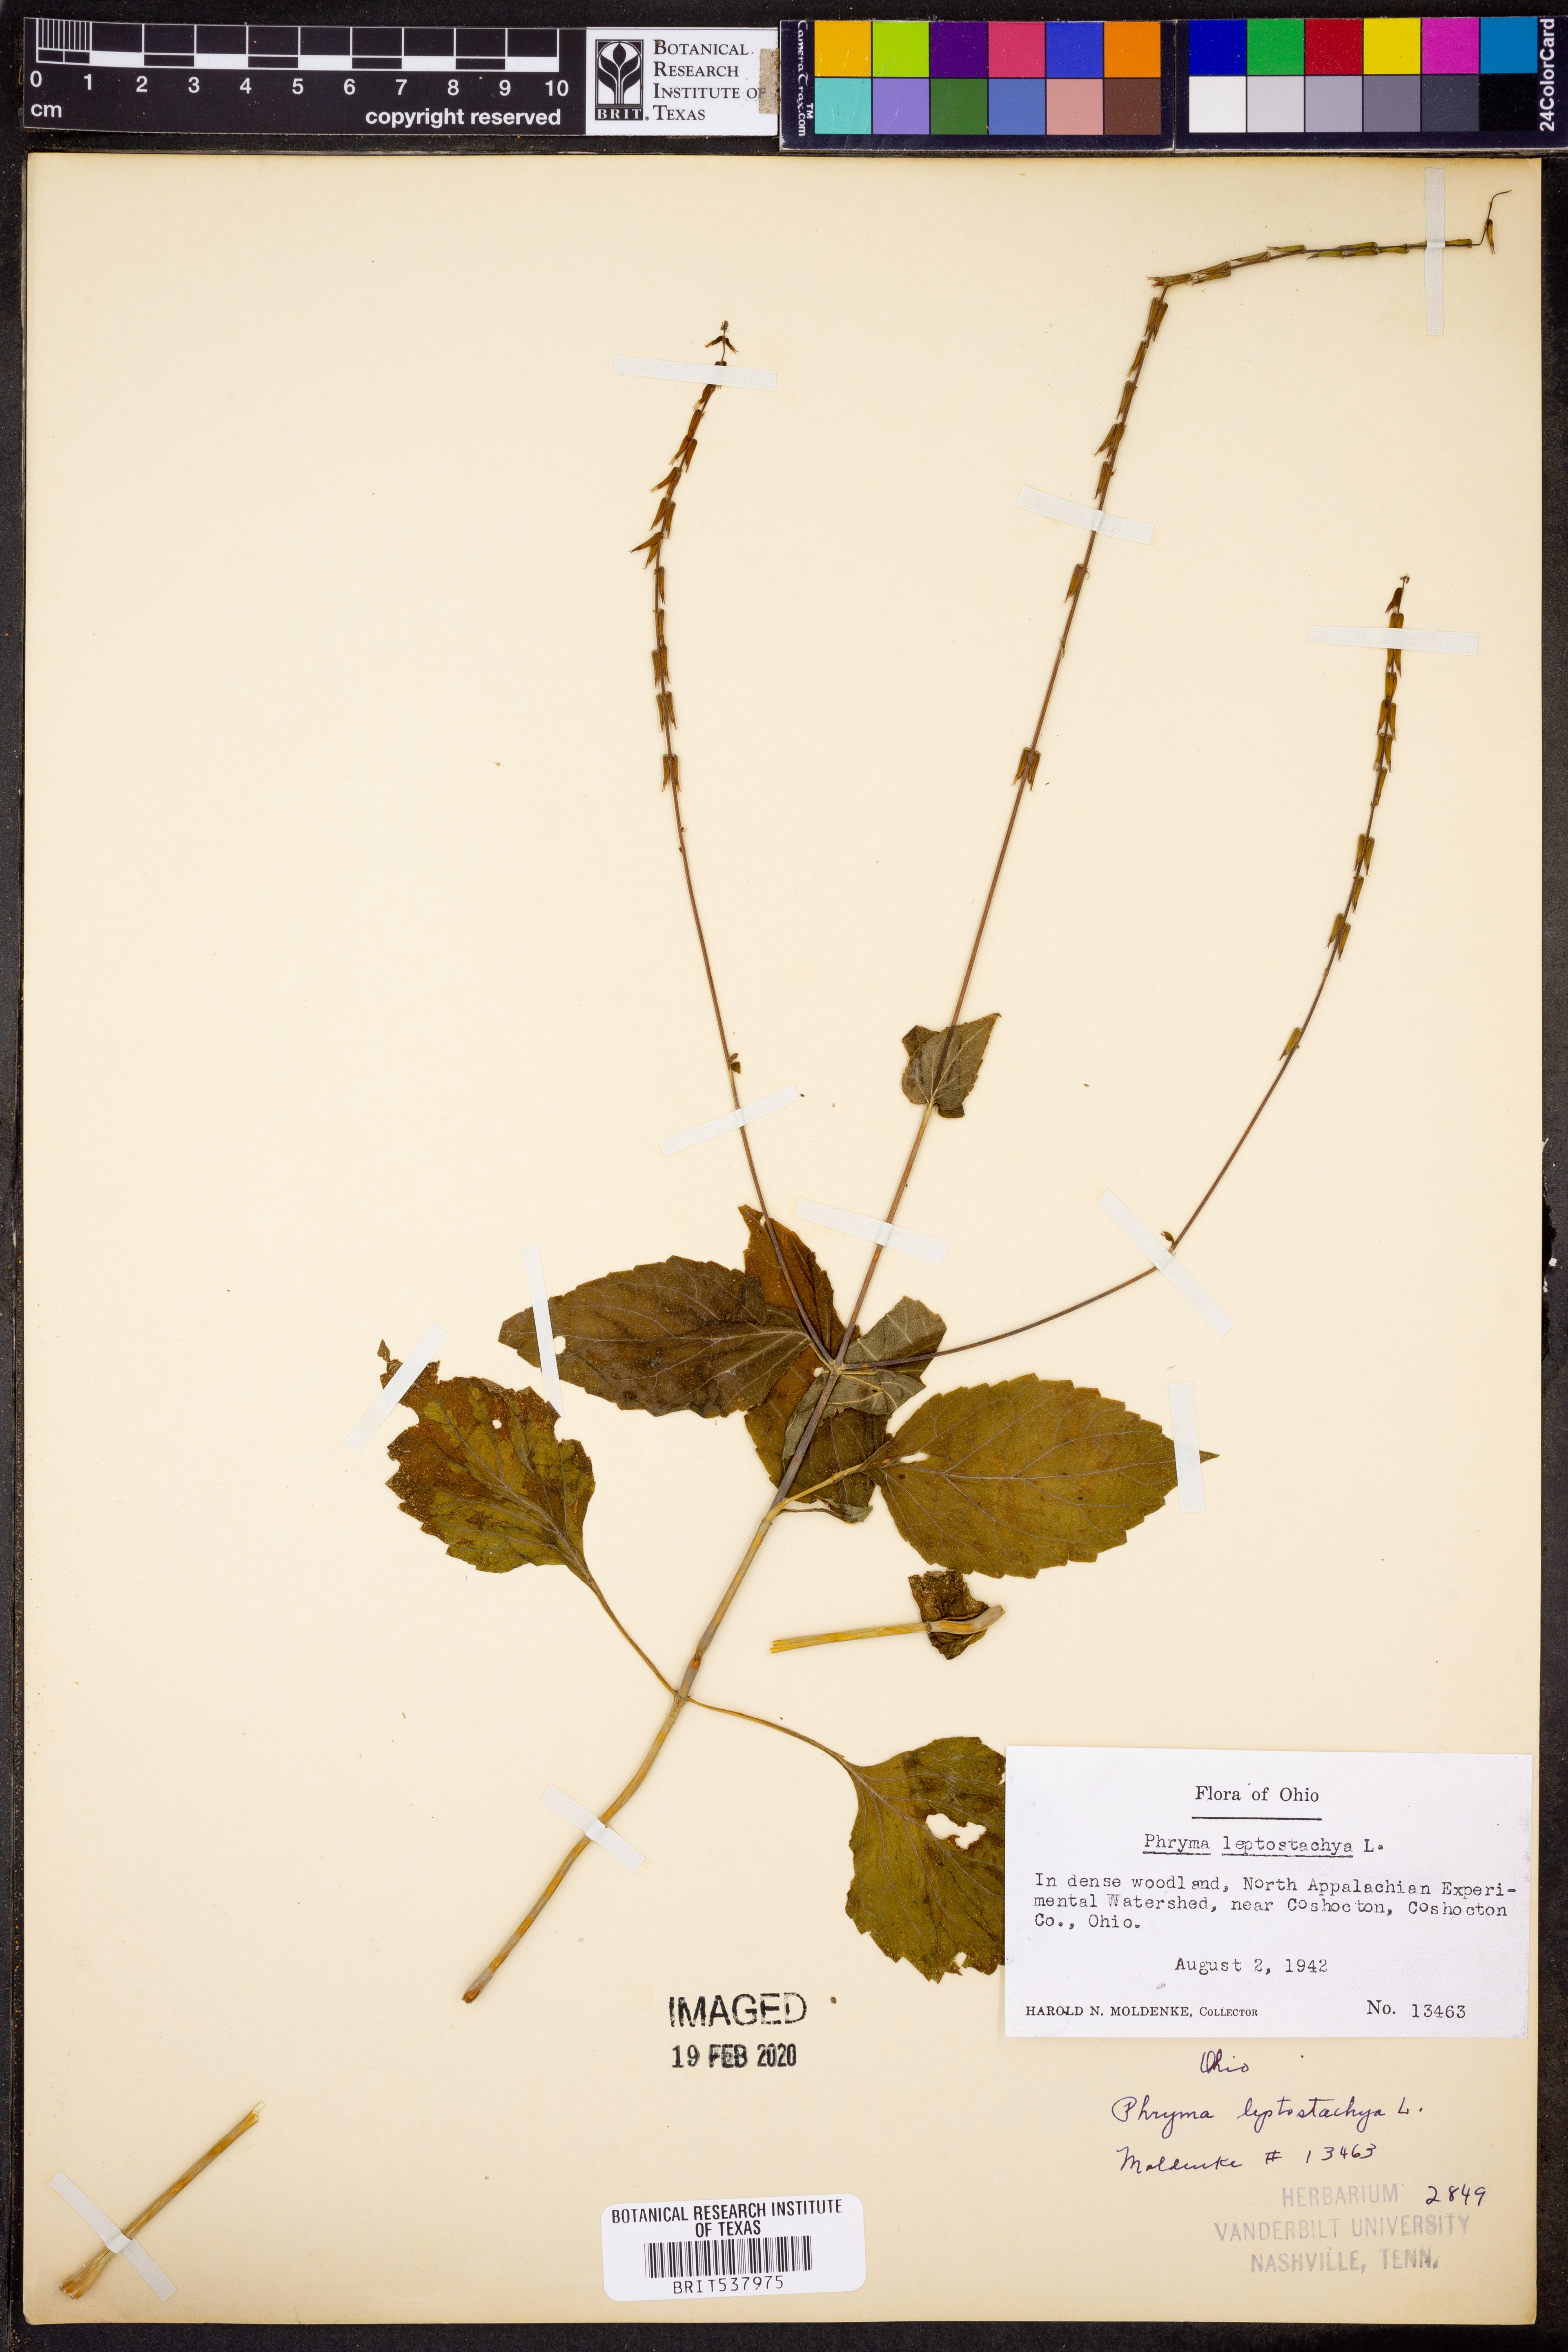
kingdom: Plantae
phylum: Tracheophyta
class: Magnoliopsida
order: Lamiales
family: Phrymaceae
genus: Phryma
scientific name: Phryma leptostachya
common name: American lopseed
